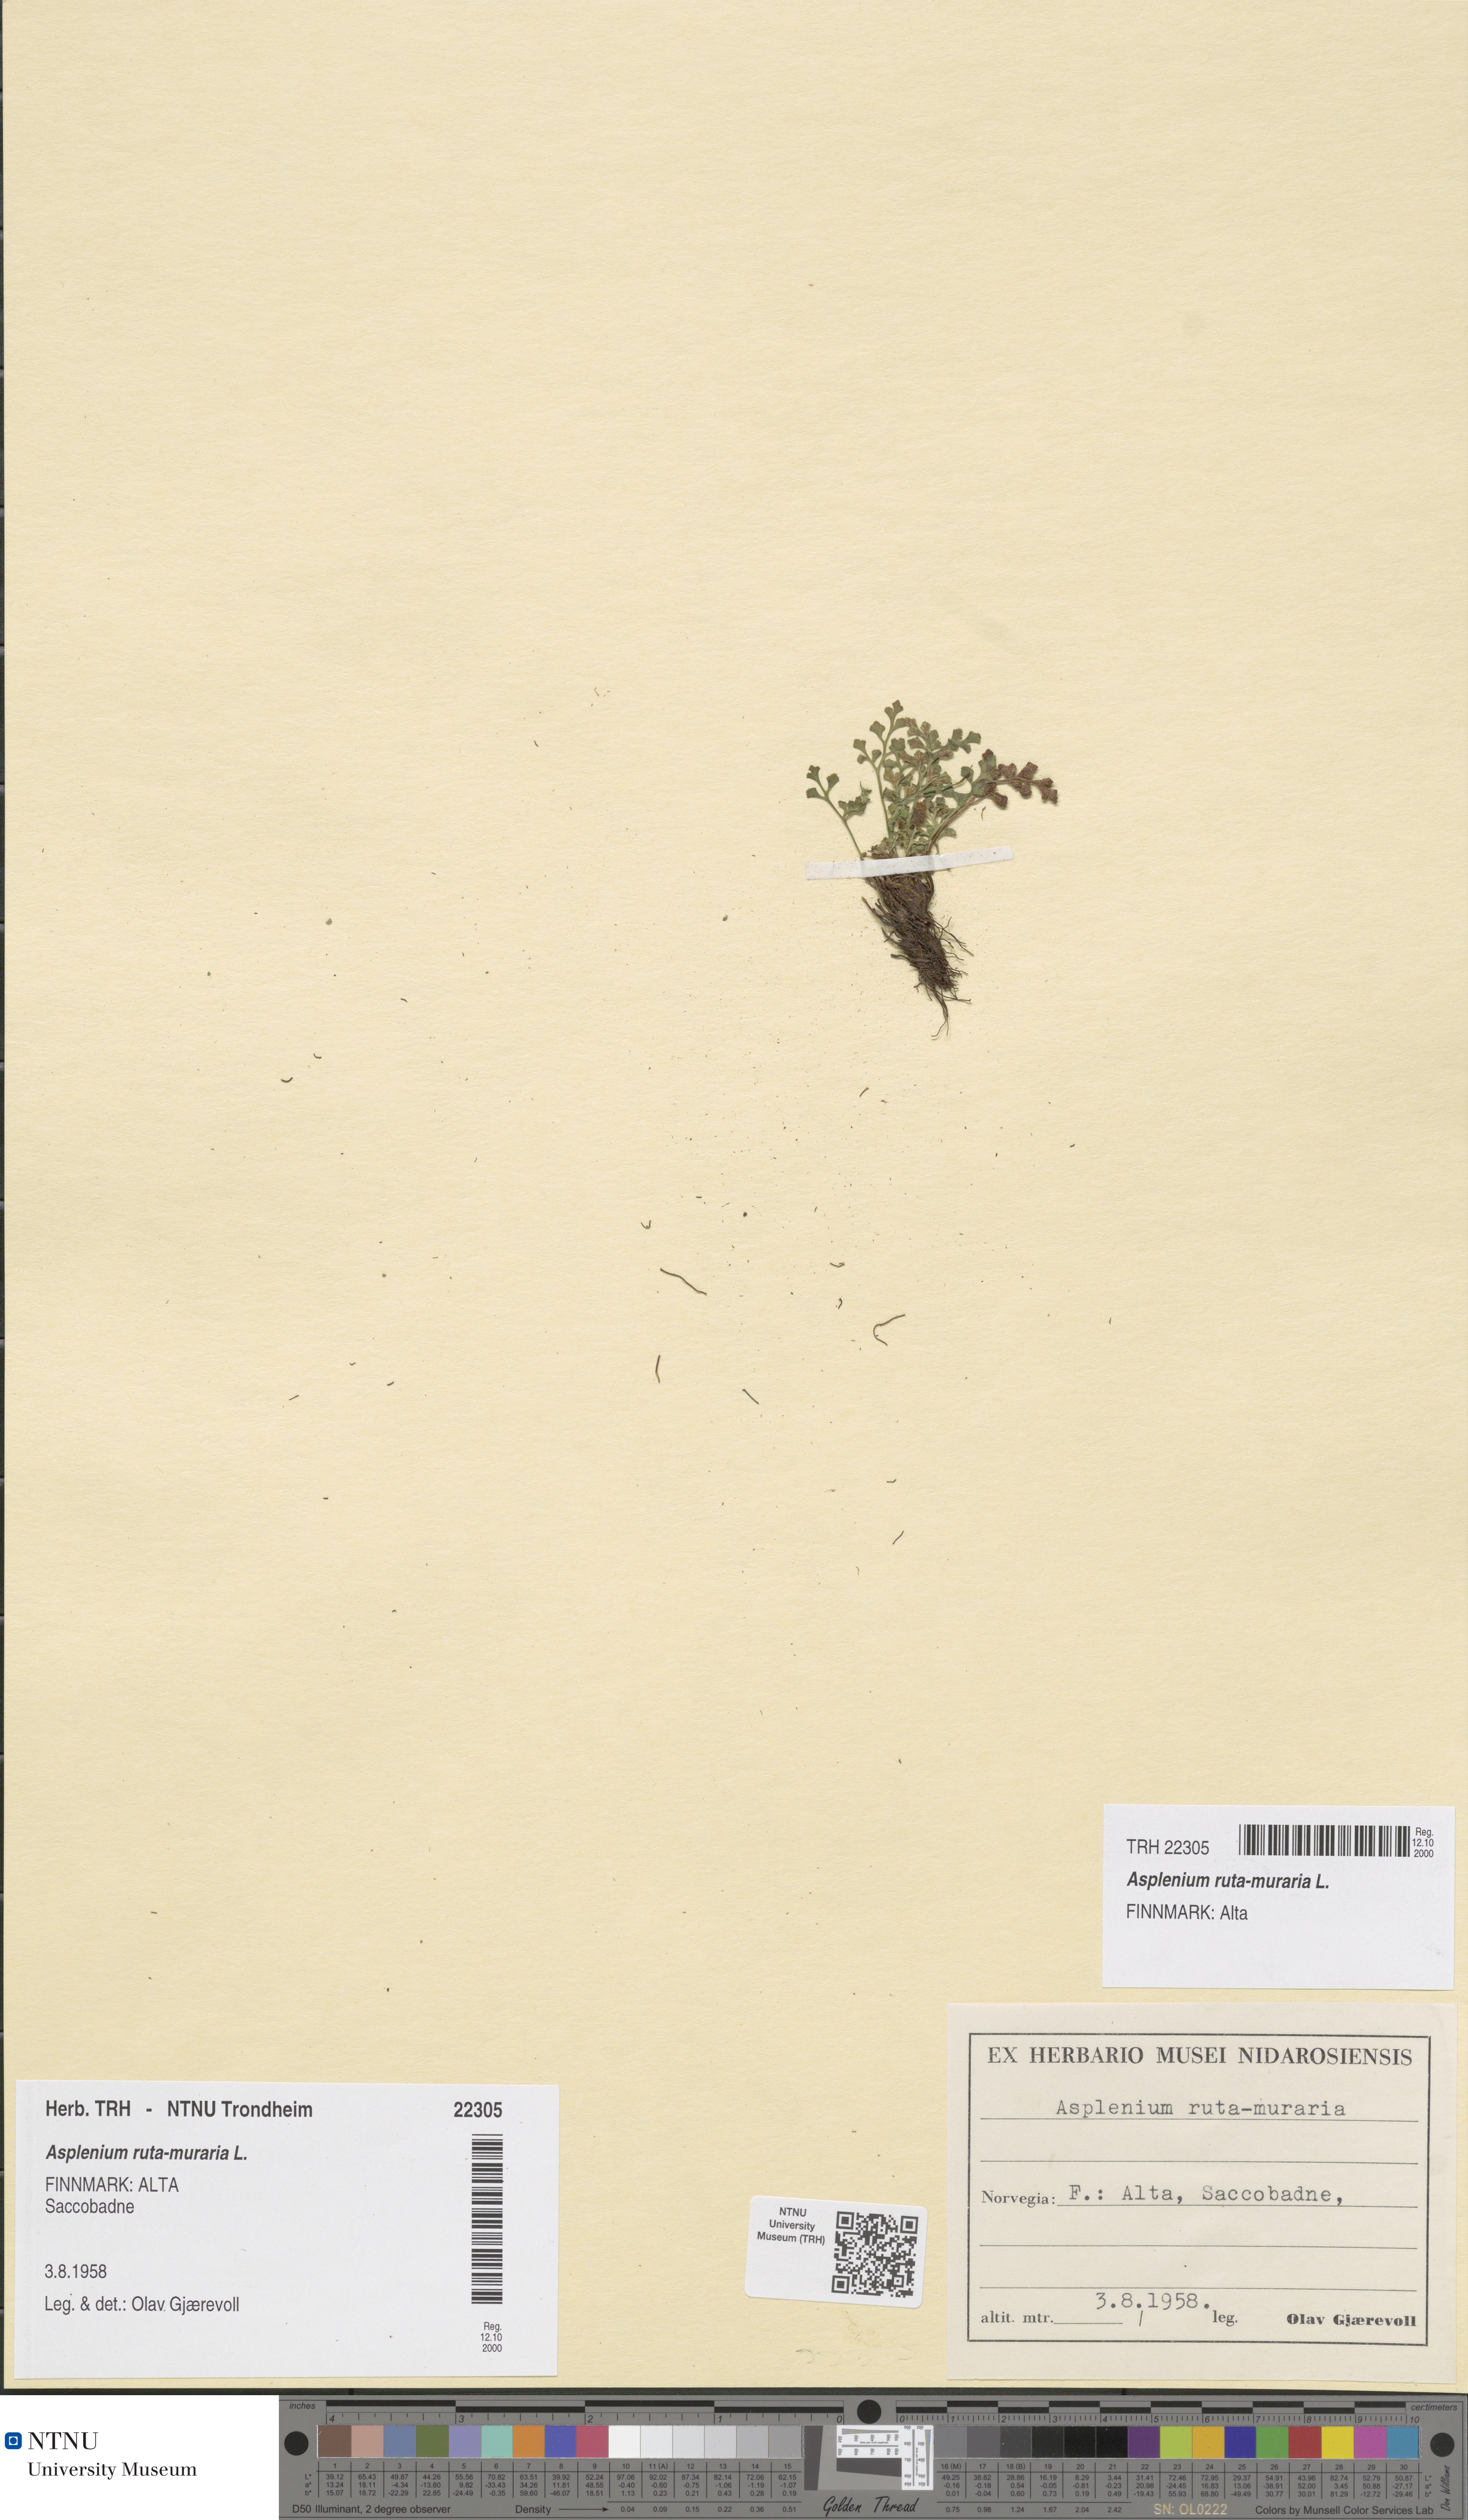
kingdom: Plantae
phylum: Tracheophyta
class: Polypodiopsida
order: Polypodiales
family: Aspleniaceae
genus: Asplenium
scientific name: Asplenium ruta-muraria
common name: Wall-rue
